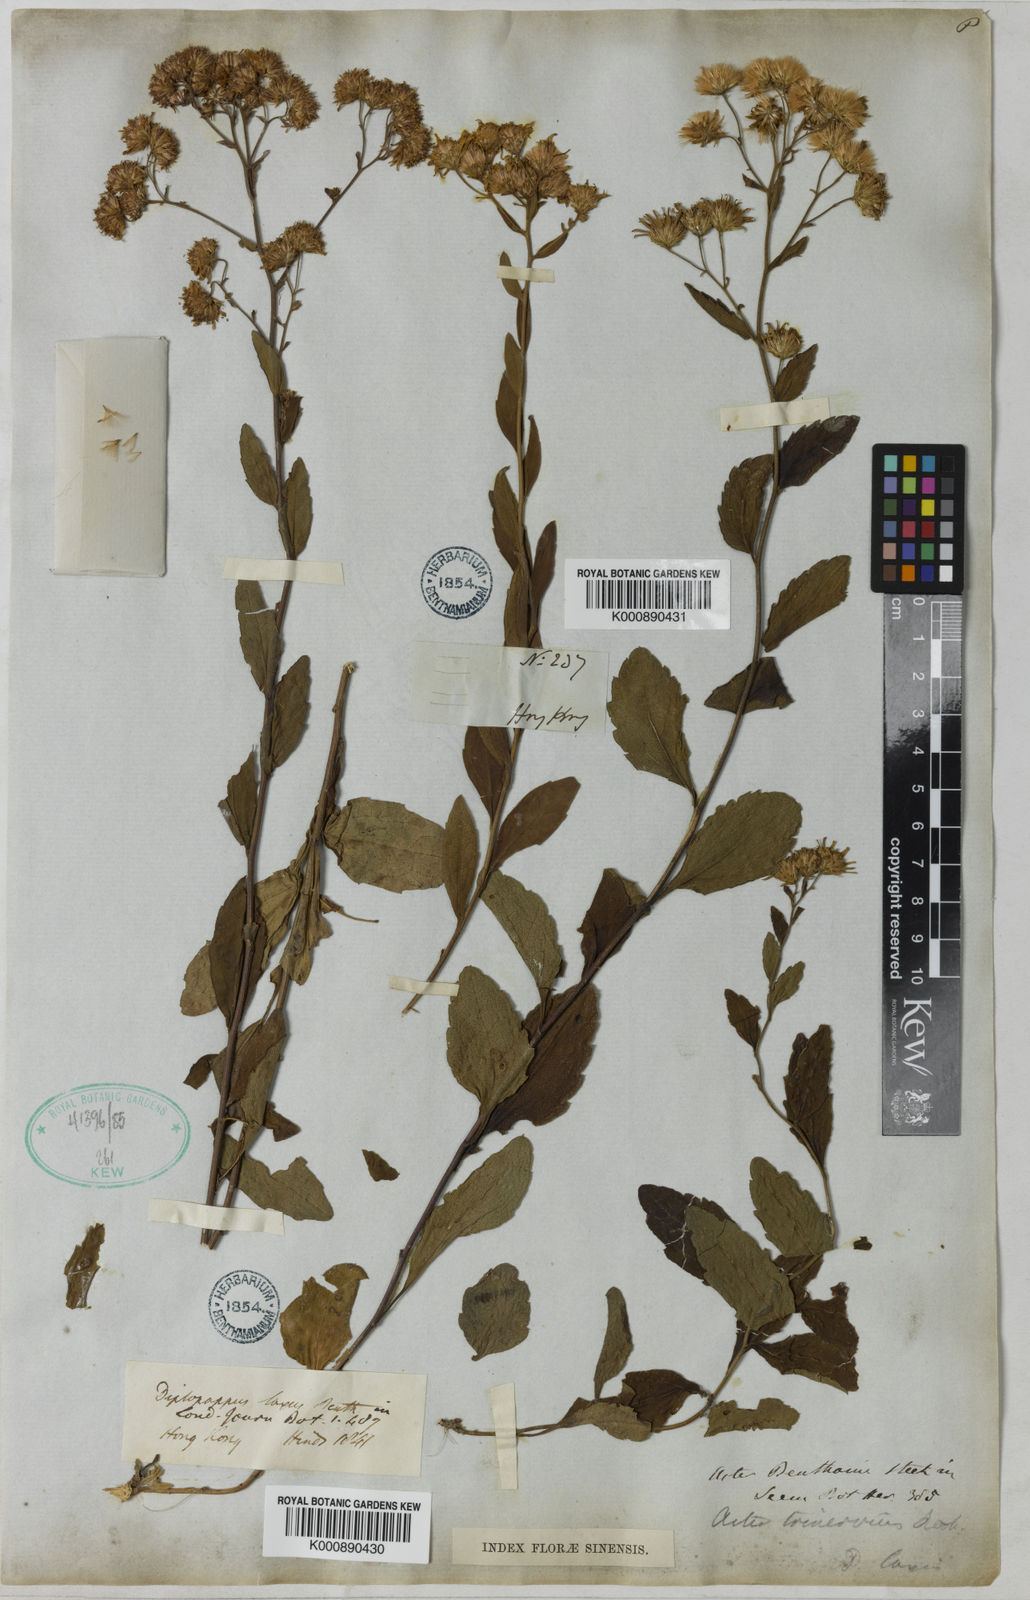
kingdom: Plantae
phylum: Tracheophyta
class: Magnoliopsida
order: Asterales
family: Asteraceae
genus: Aster
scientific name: Aster
